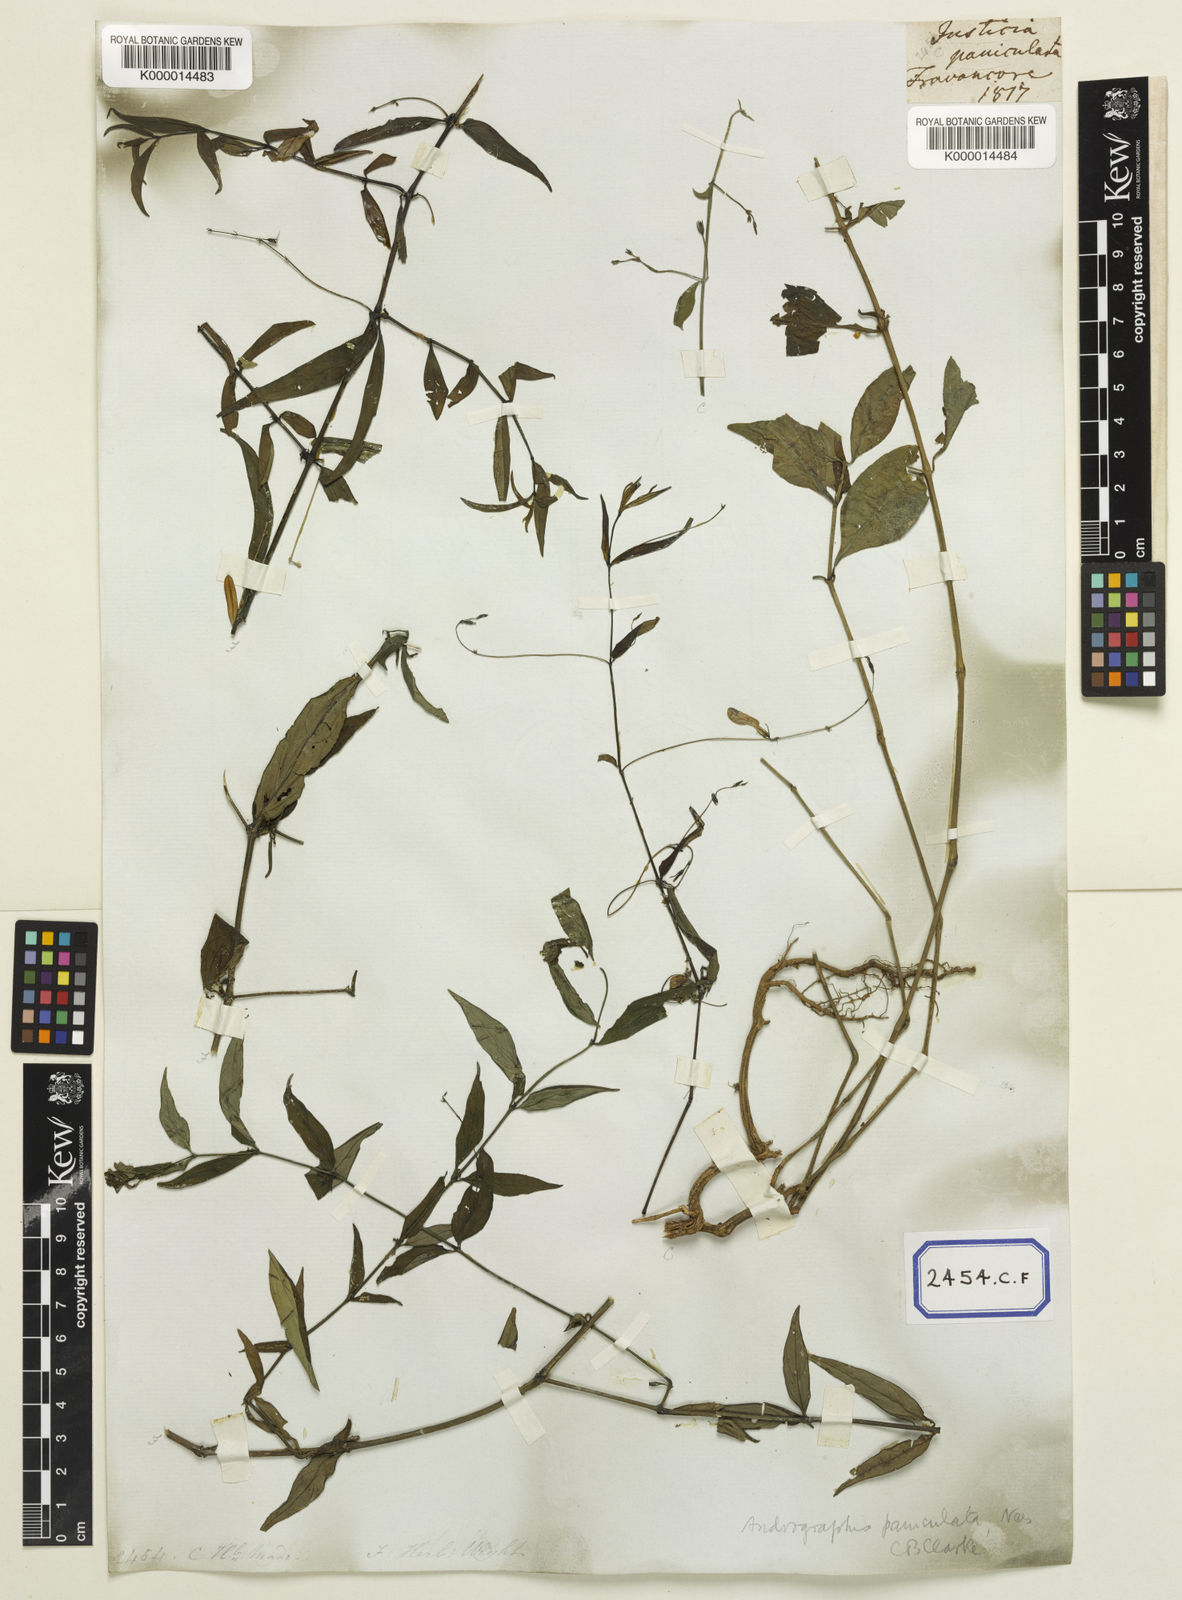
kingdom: Plantae
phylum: Tracheophyta
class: Magnoliopsida
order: Lamiales
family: Acanthaceae
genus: Justicia
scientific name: Justicia
